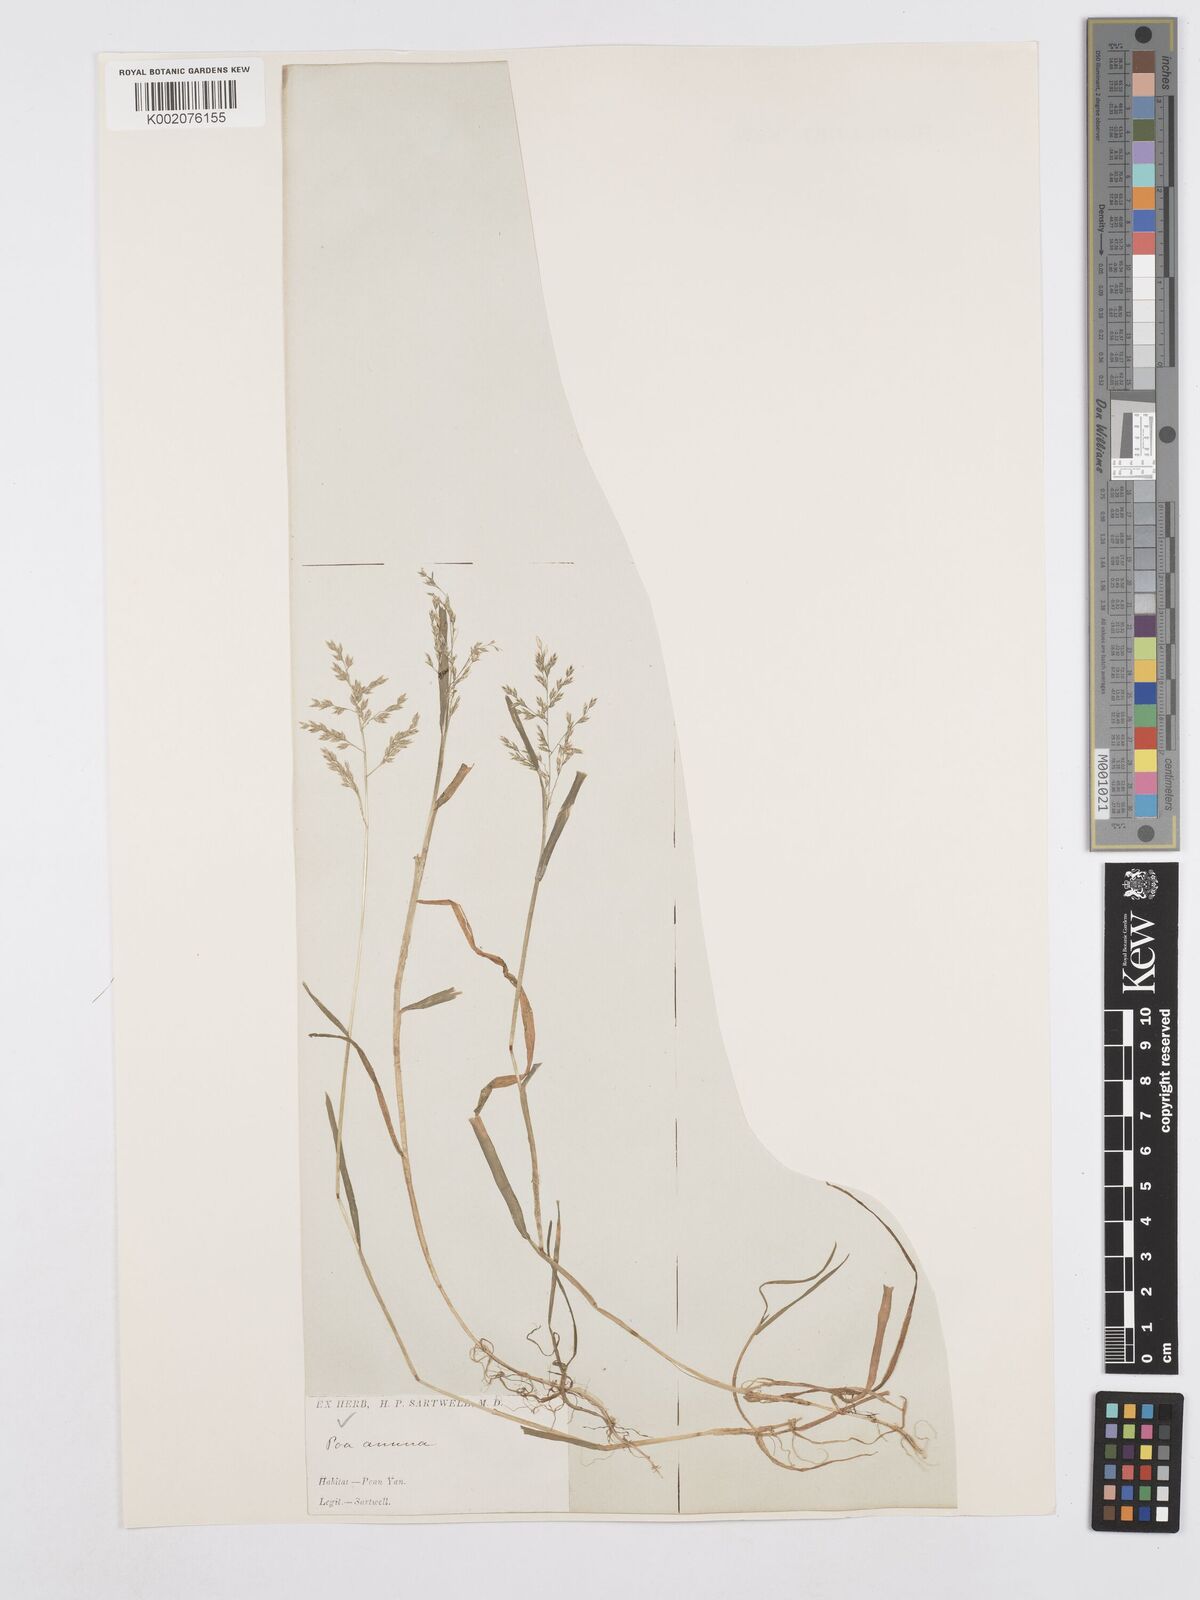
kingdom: Plantae
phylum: Tracheophyta
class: Liliopsida
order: Poales
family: Poaceae
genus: Poa
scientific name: Poa annua
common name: Annual bluegrass
